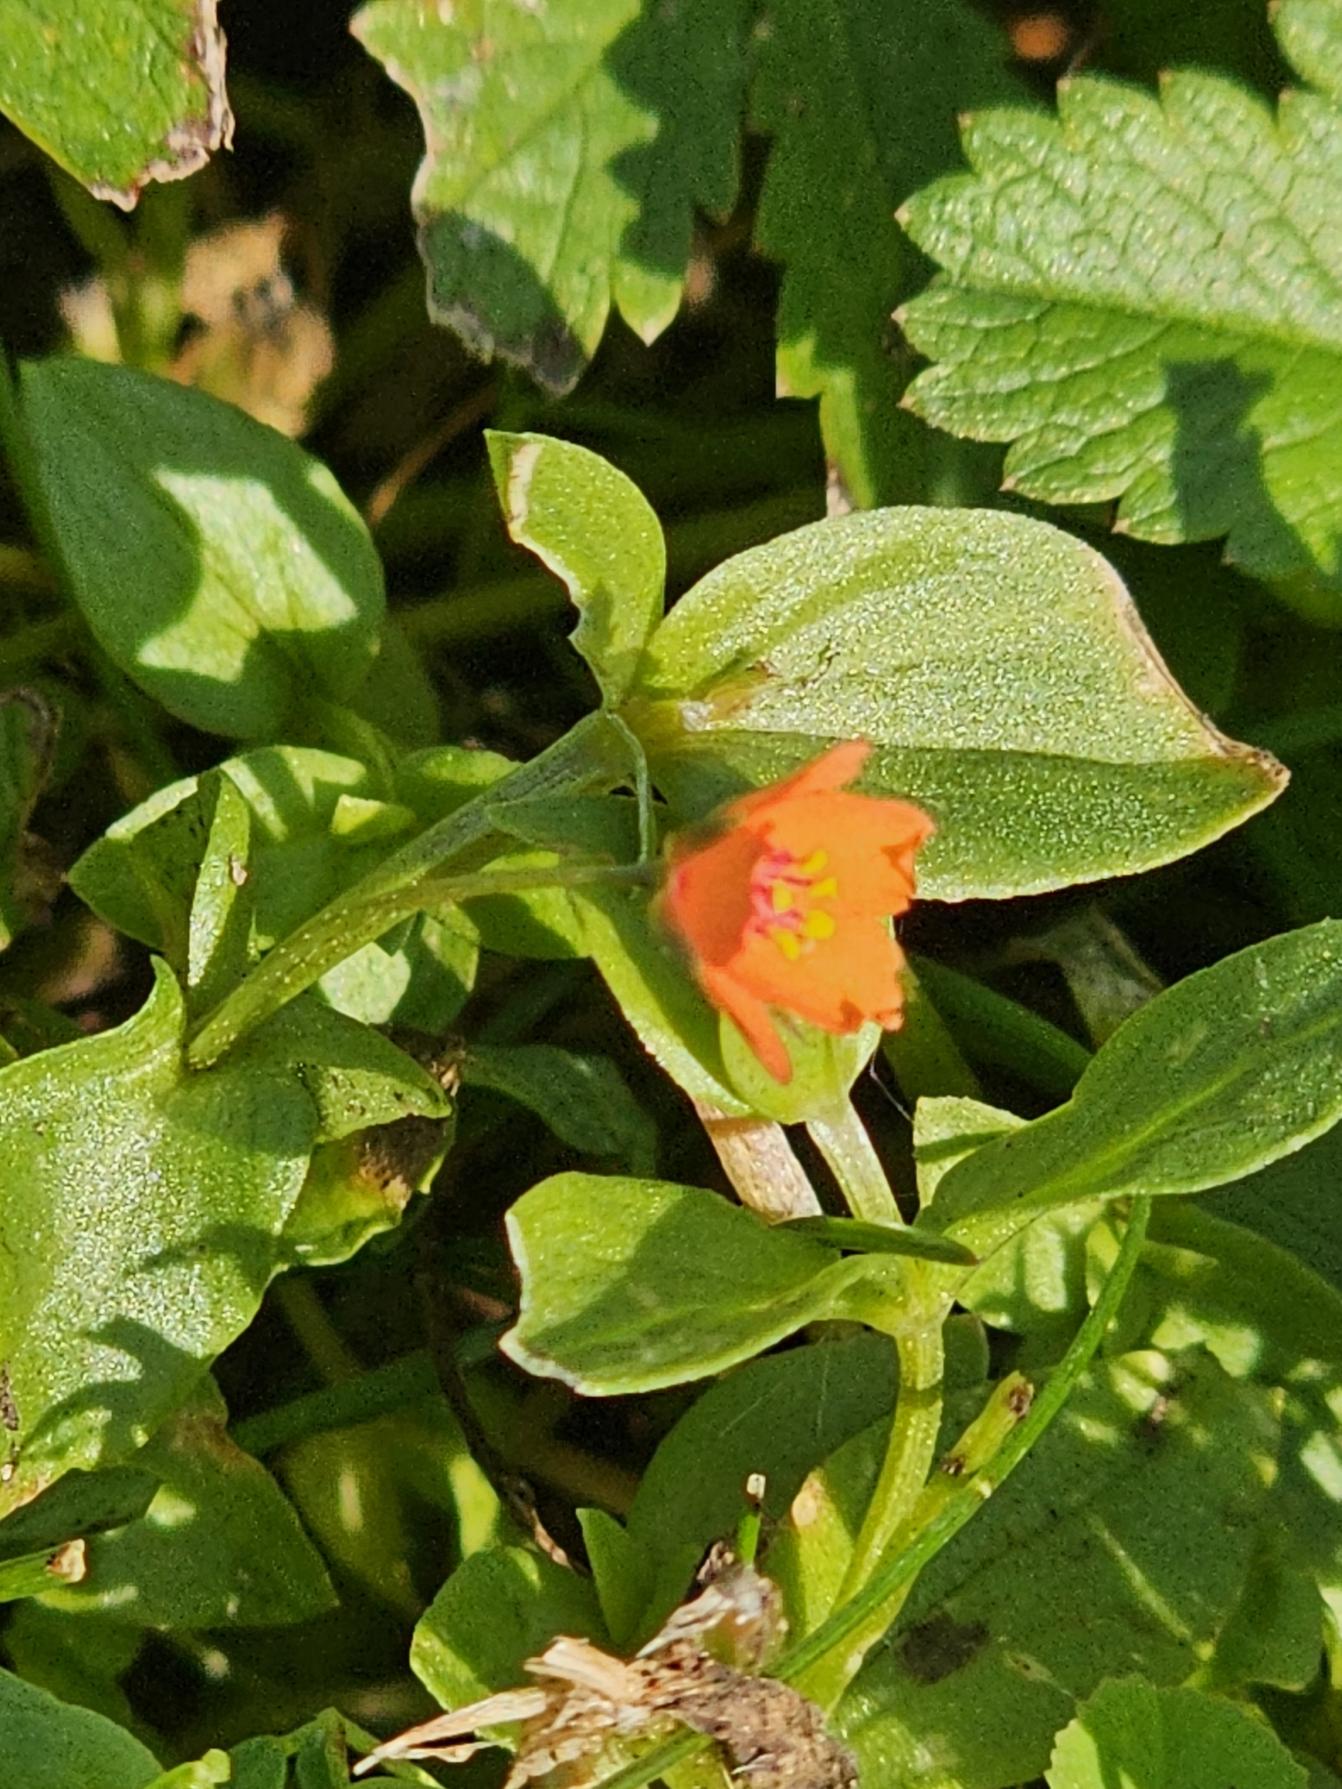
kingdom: Plantae
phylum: Tracheophyta
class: Magnoliopsida
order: Ericales
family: Primulaceae
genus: Lysimachia
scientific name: Lysimachia arvensis
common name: Rød arve
